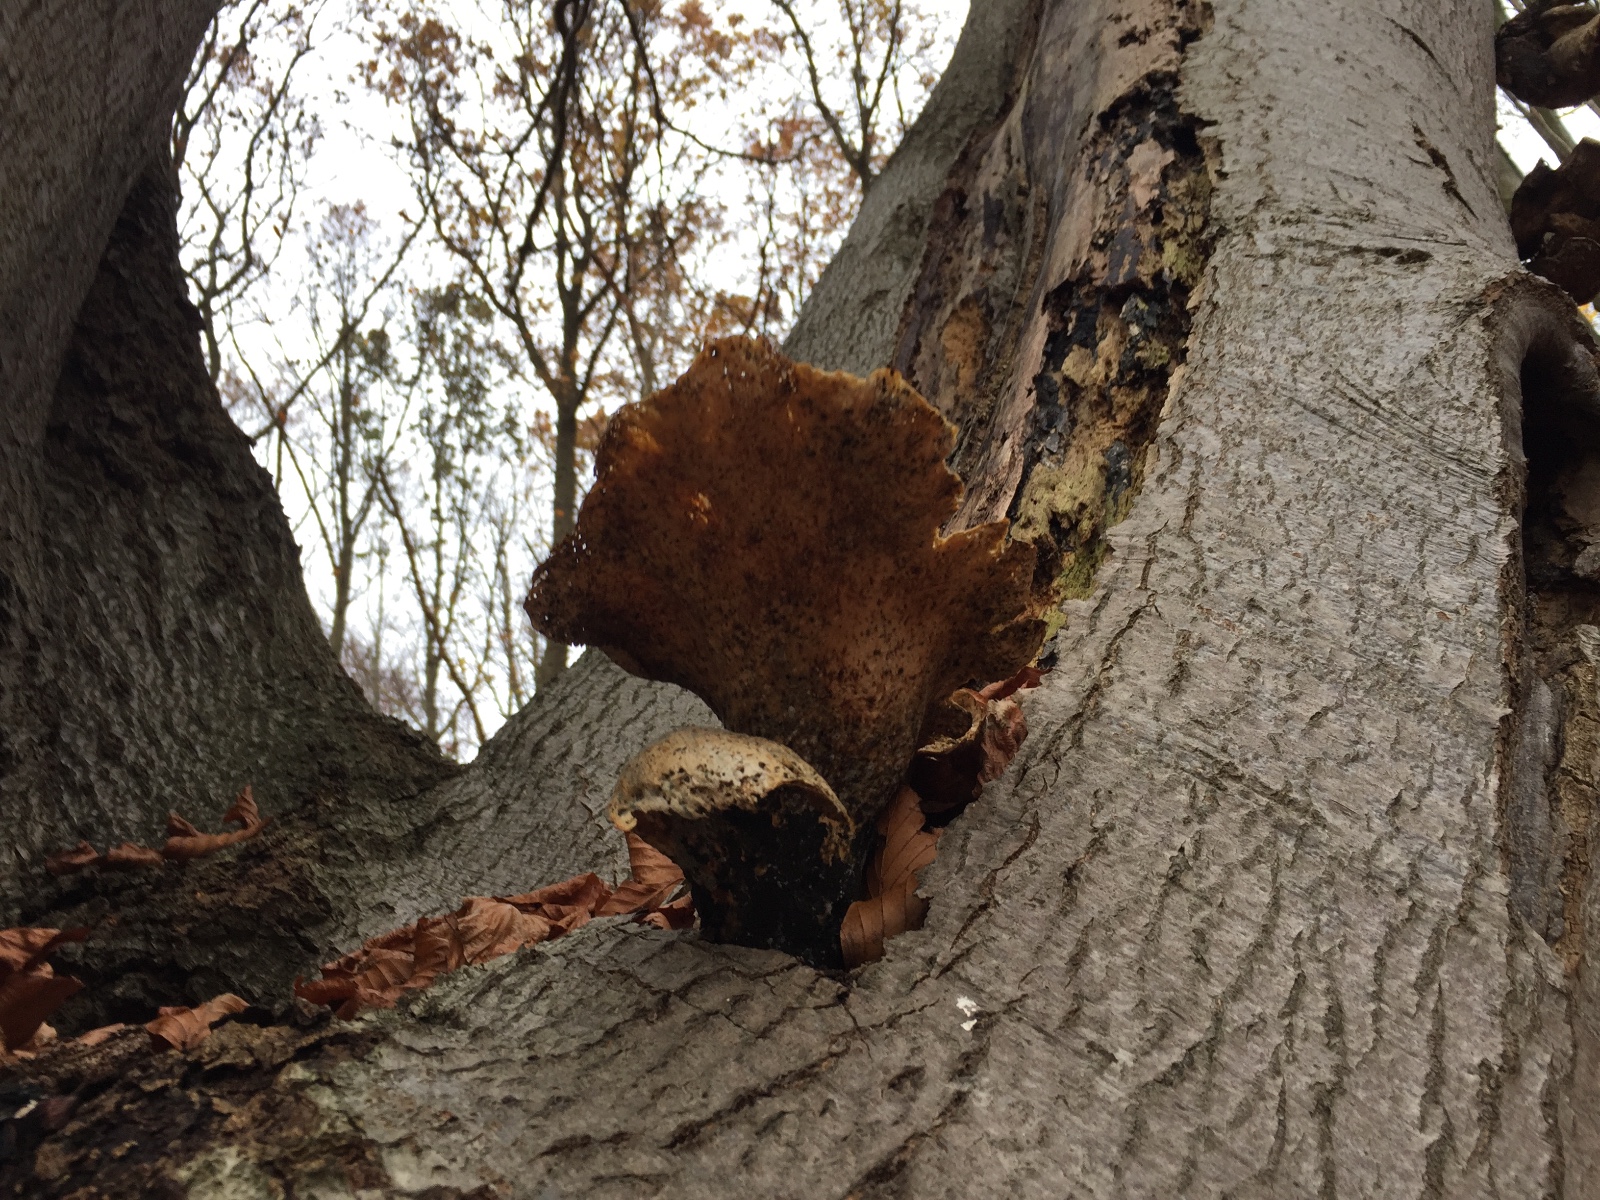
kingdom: Fungi
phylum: Basidiomycota
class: Agaricomycetes
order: Polyporales
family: Polyporaceae
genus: Cerioporus
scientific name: Cerioporus squamosus
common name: skællet stilkporesvamp
